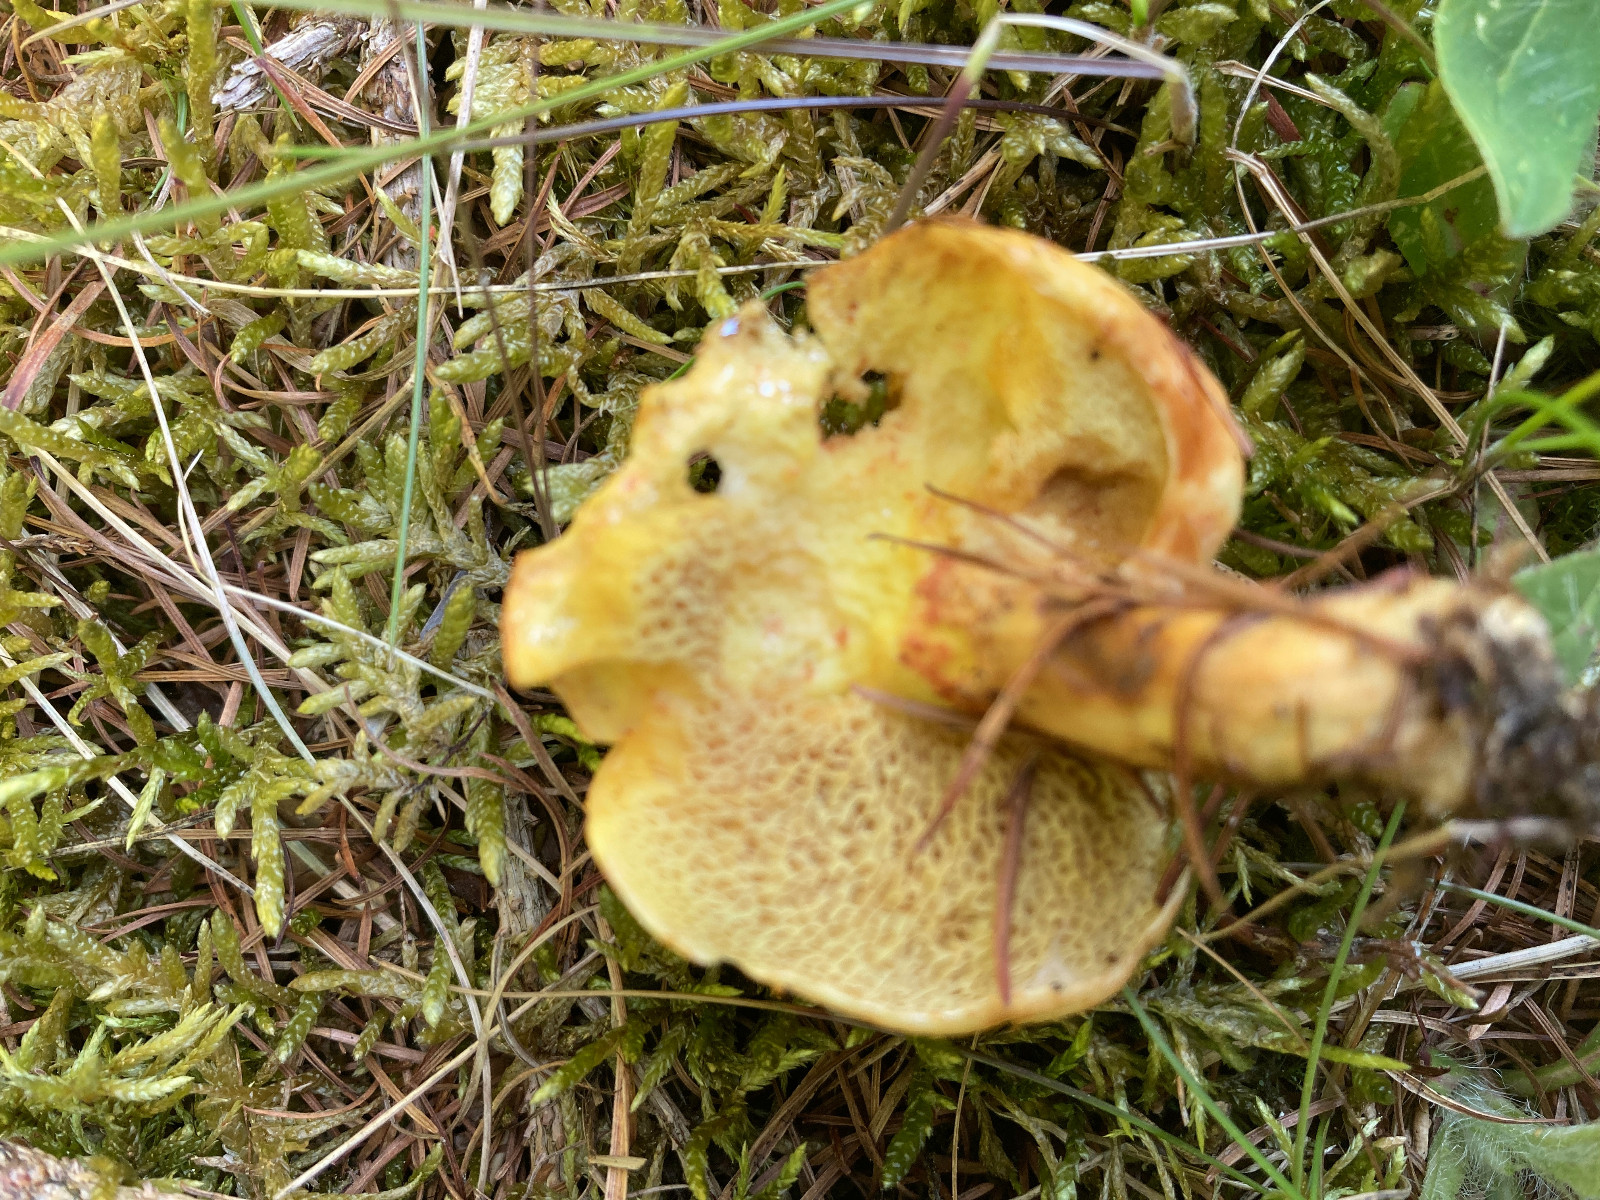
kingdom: Fungi
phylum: Basidiomycota
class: Agaricomycetes
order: Boletales
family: Suillaceae
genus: Suillus
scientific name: Suillus grevillei
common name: lærke-slimrørhat
